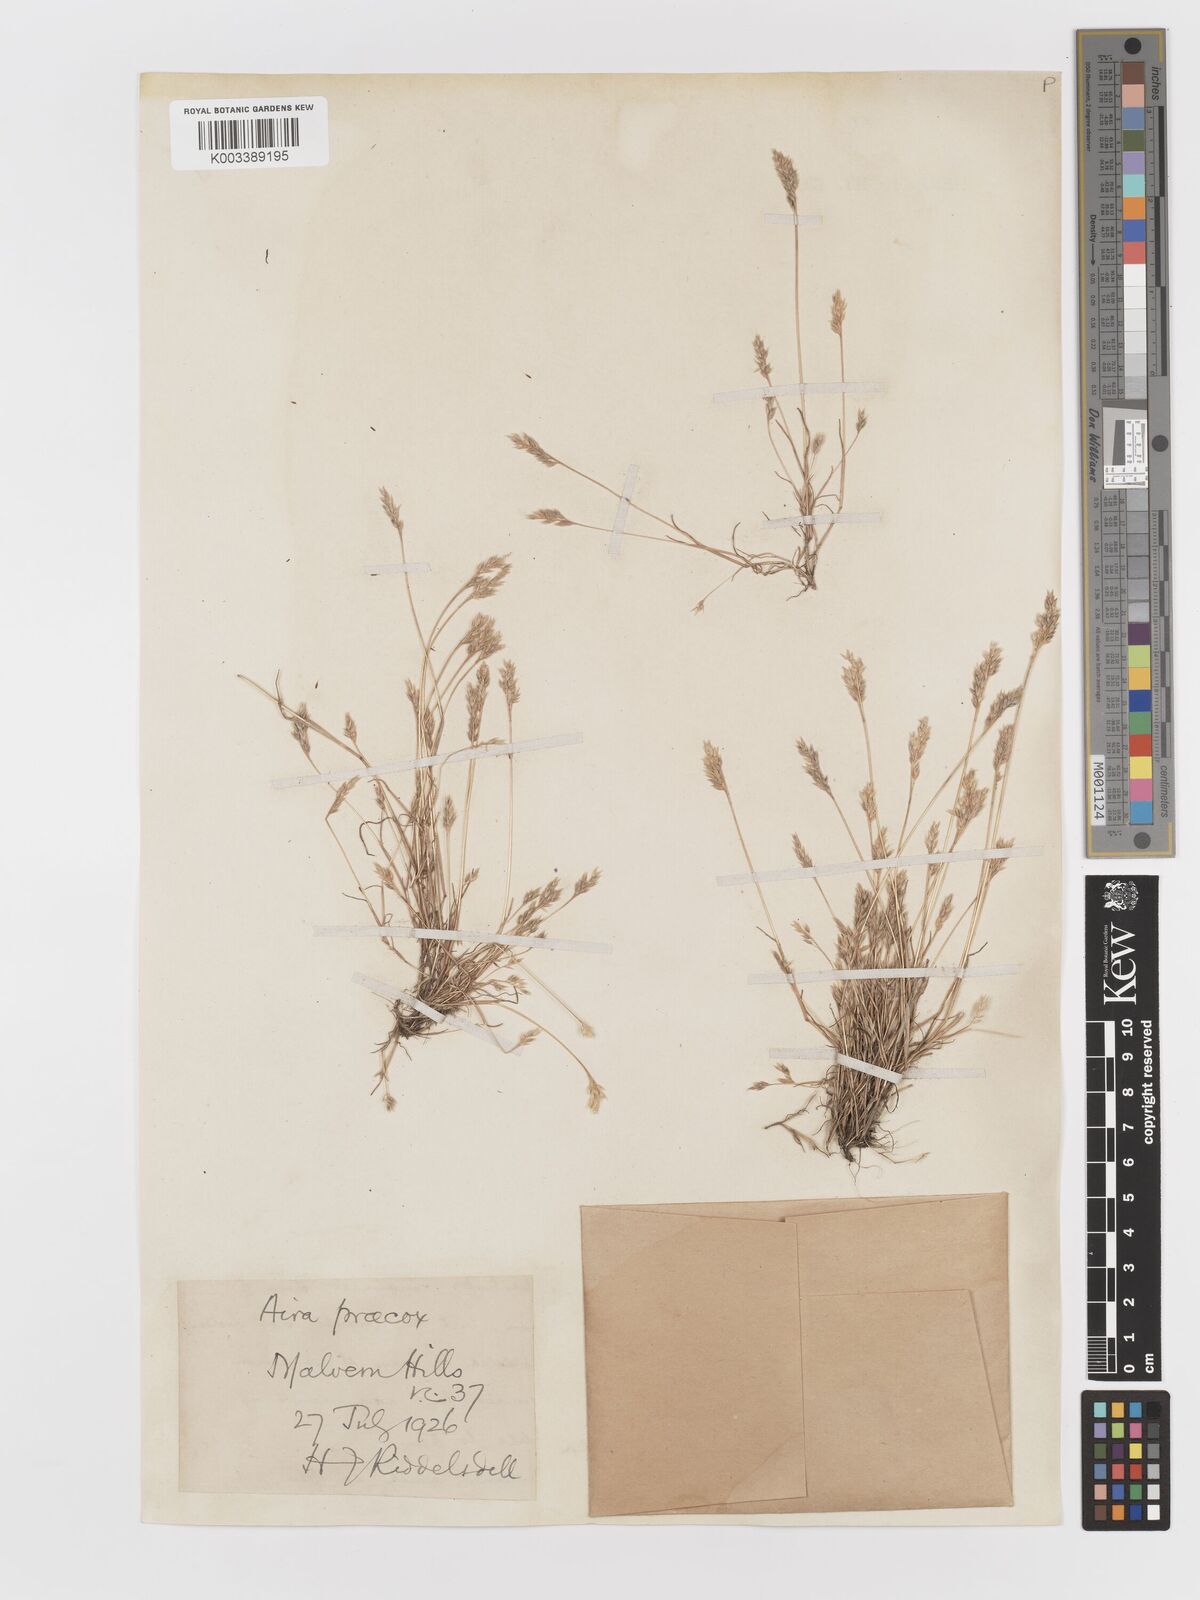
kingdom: Plantae
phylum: Tracheophyta
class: Liliopsida
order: Poales
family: Poaceae
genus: Aira
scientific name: Aira praecox
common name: Early hair-grass
